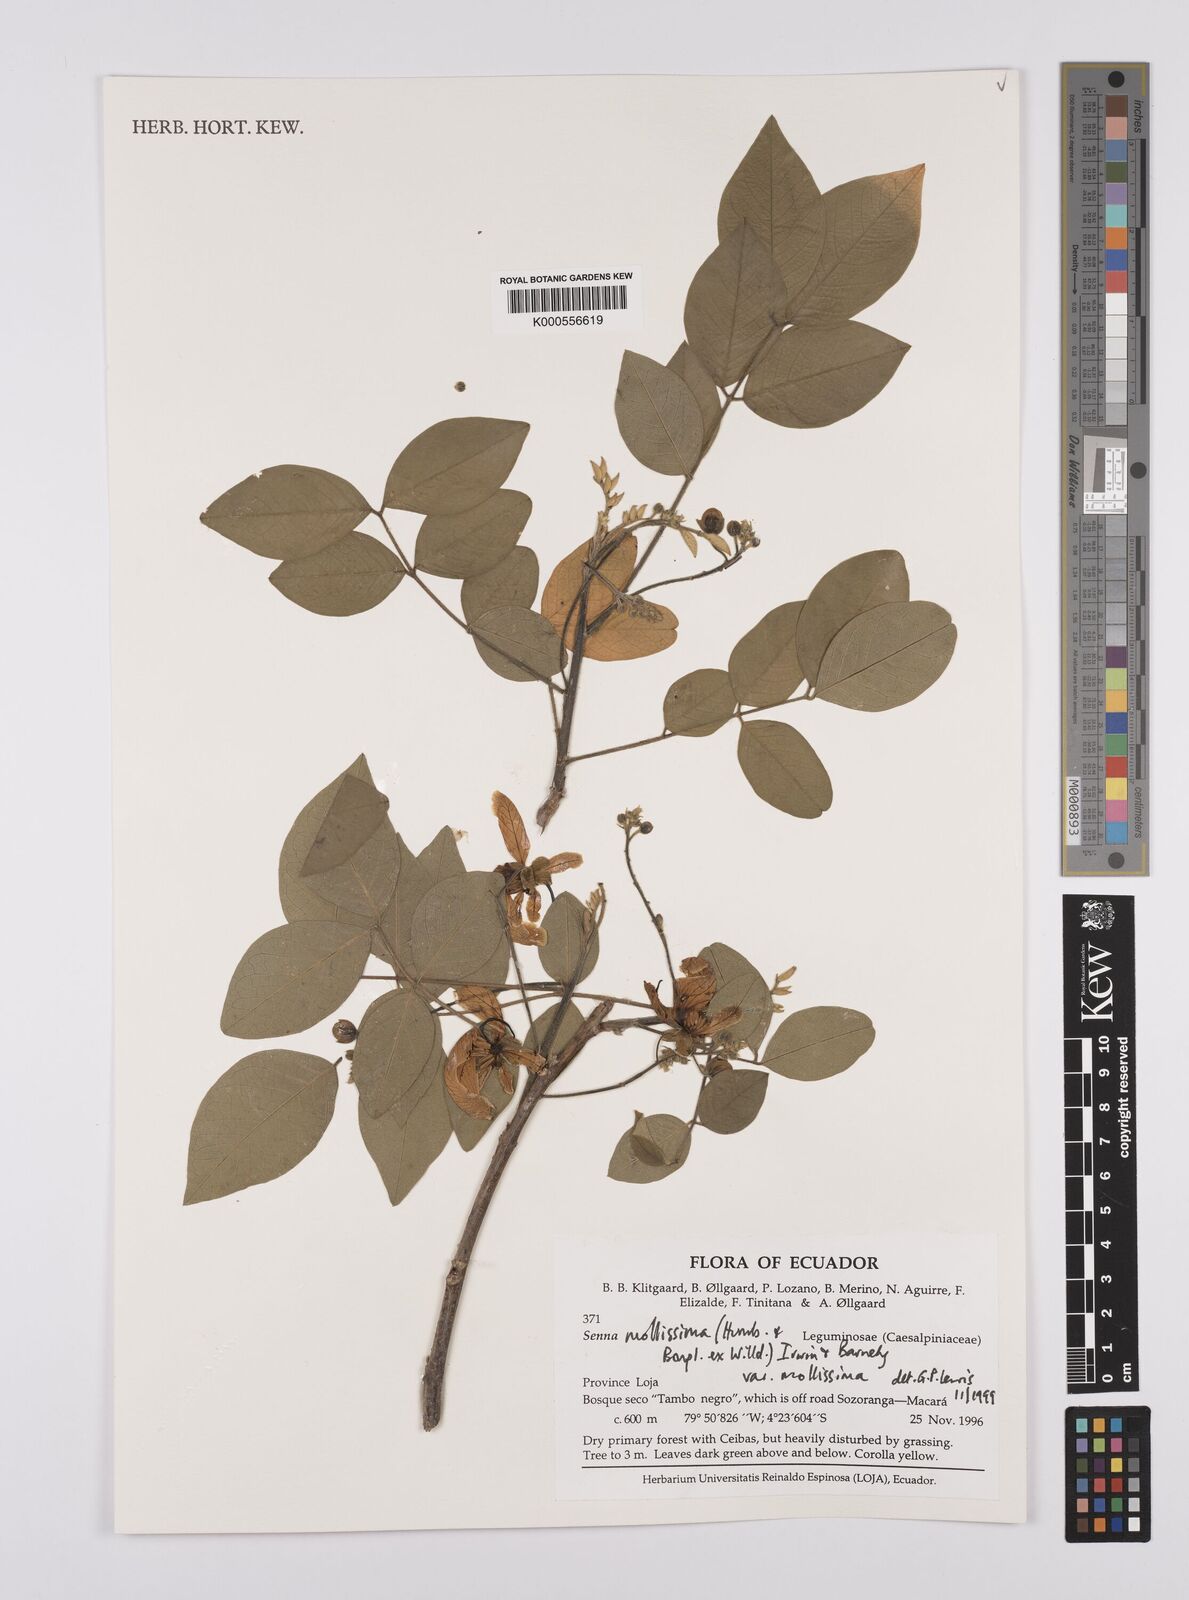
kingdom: Plantae
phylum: Tracheophyta
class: Magnoliopsida
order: Fabales
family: Fabaceae
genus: Senna
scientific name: Senna mollissima
